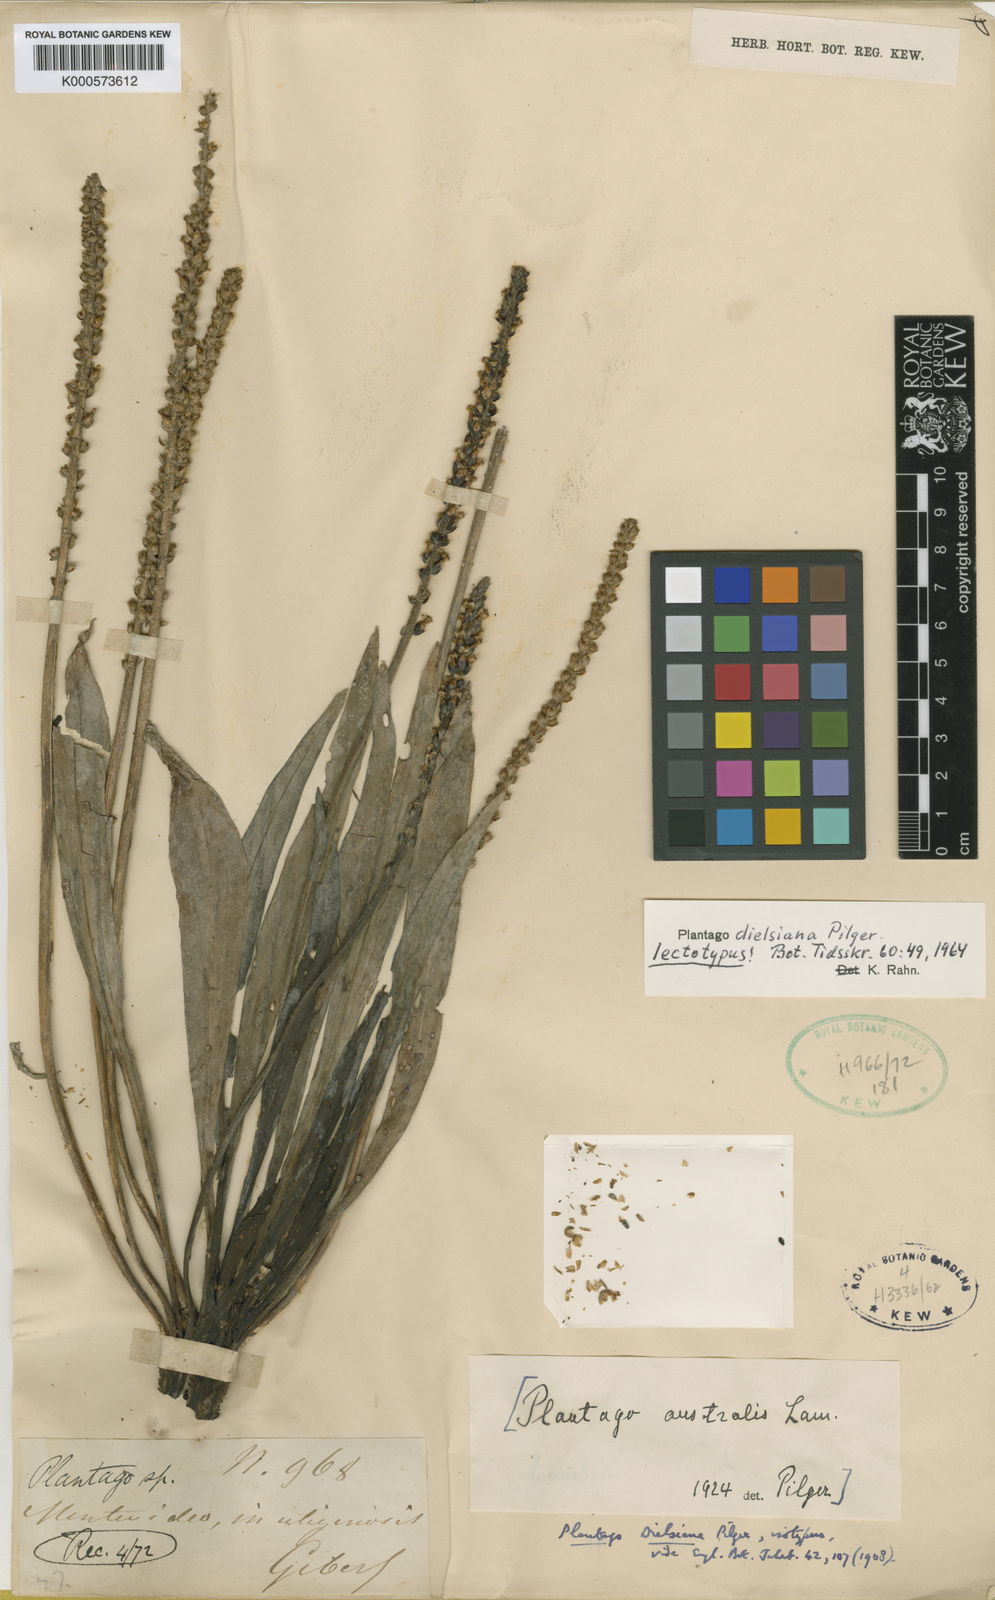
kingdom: Plantae
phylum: Tracheophyta
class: Magnoliopsida
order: Lamiales
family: Plantaginaceae
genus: Plantago
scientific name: Plantago dielsiana
